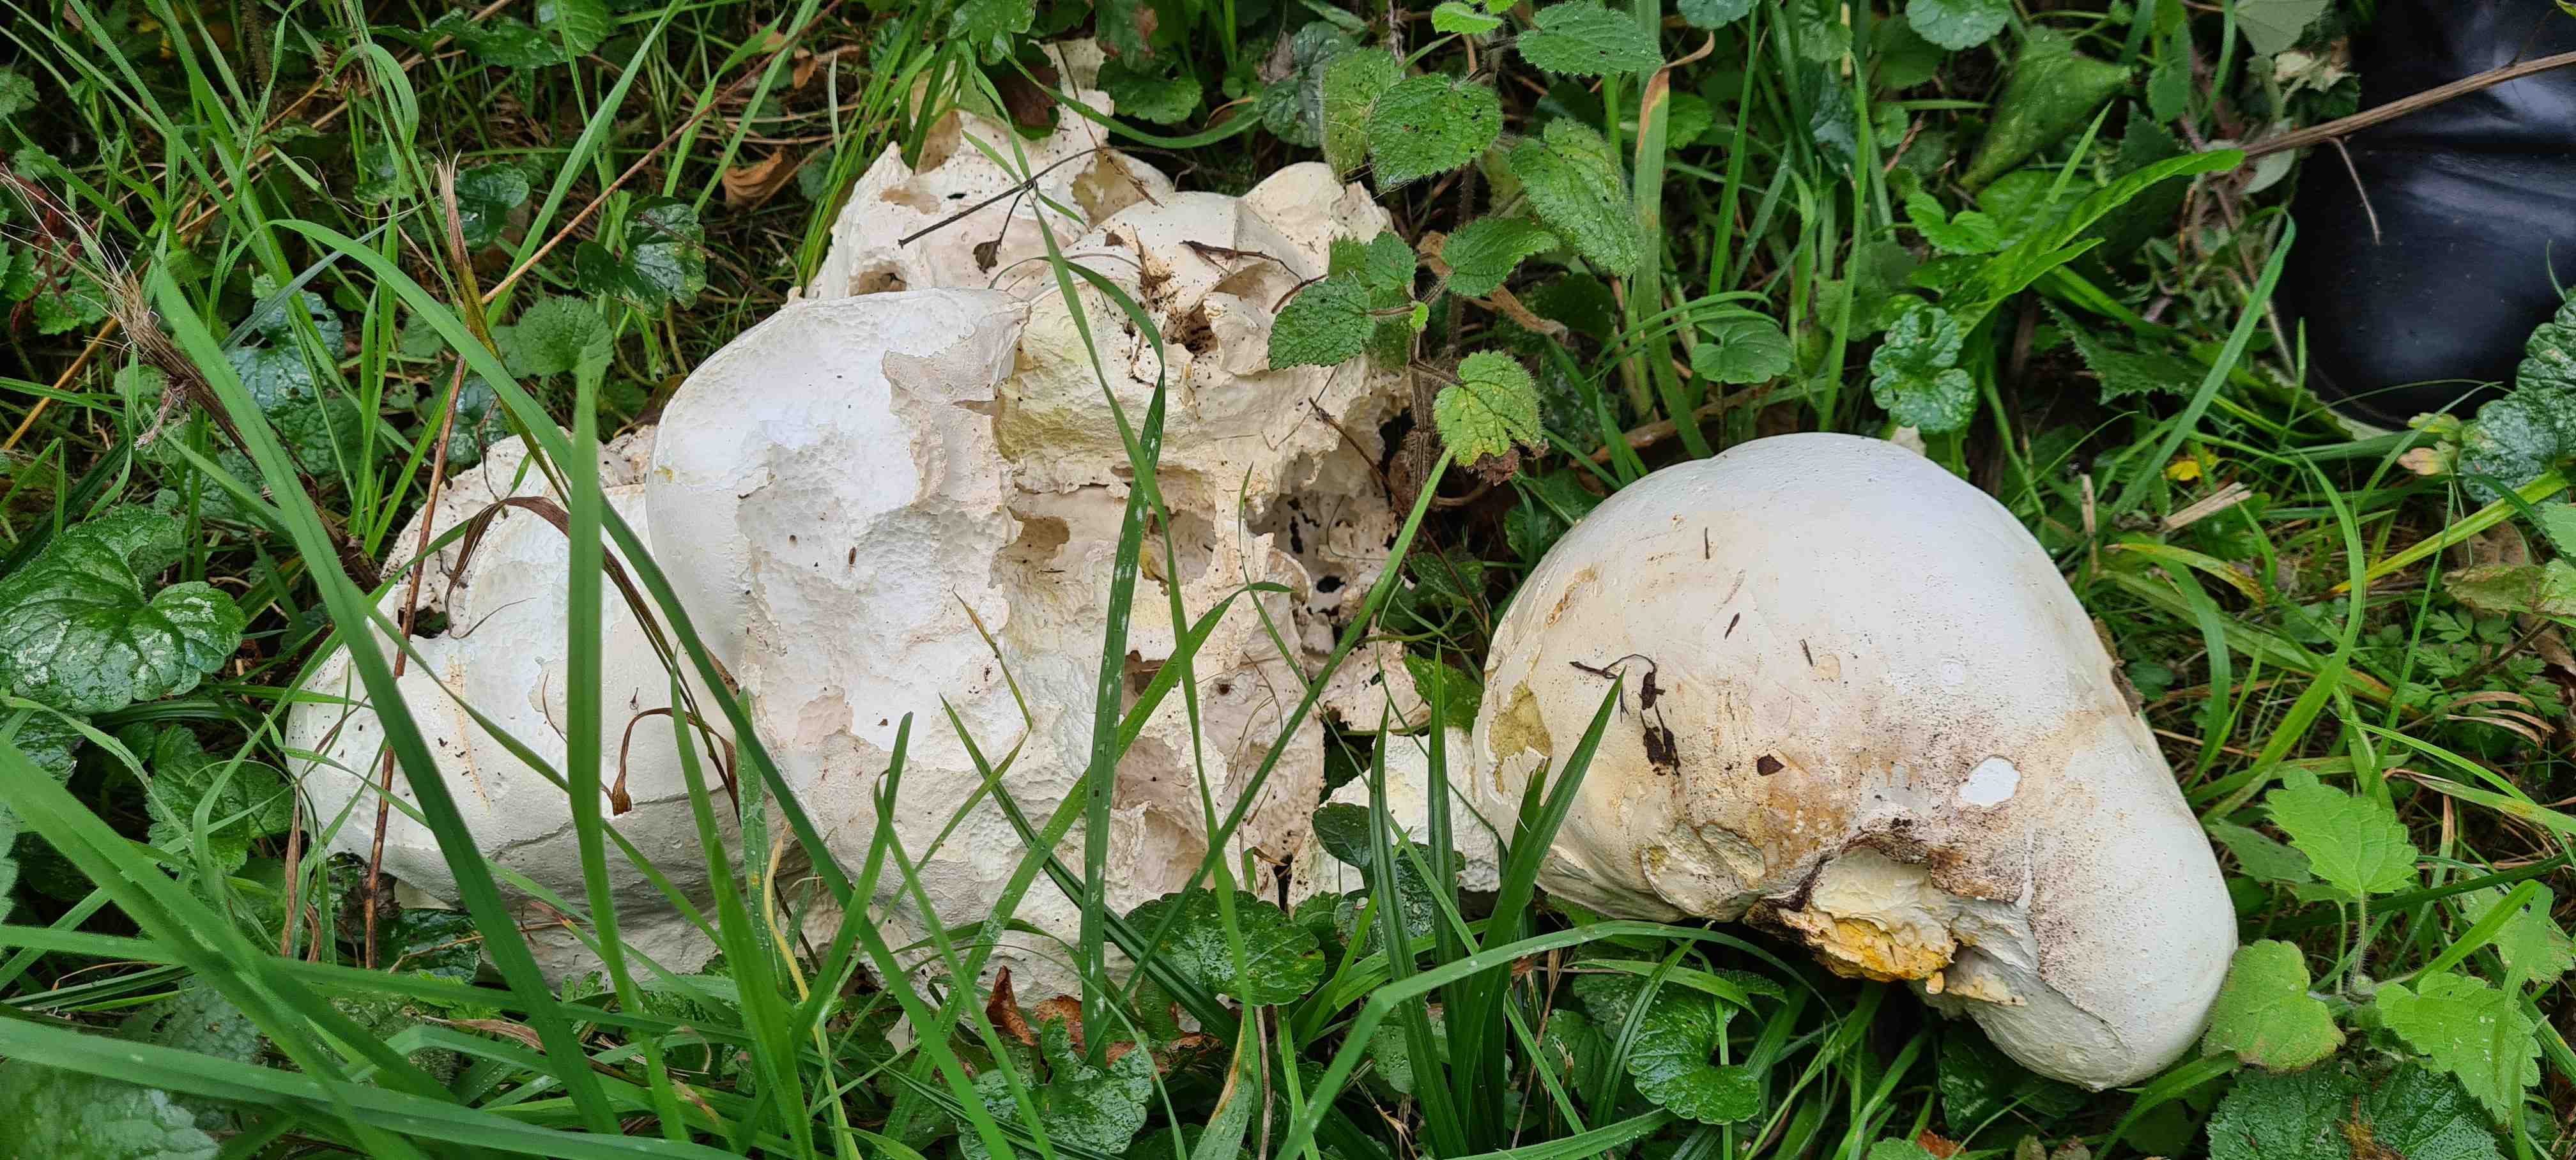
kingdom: Fungi
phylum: Basidiomycota
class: Agaricomycetes
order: Agaricales
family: Lycoperdaceae
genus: Calvatia
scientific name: Calvatia gigantea
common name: kæmpestøvbold
